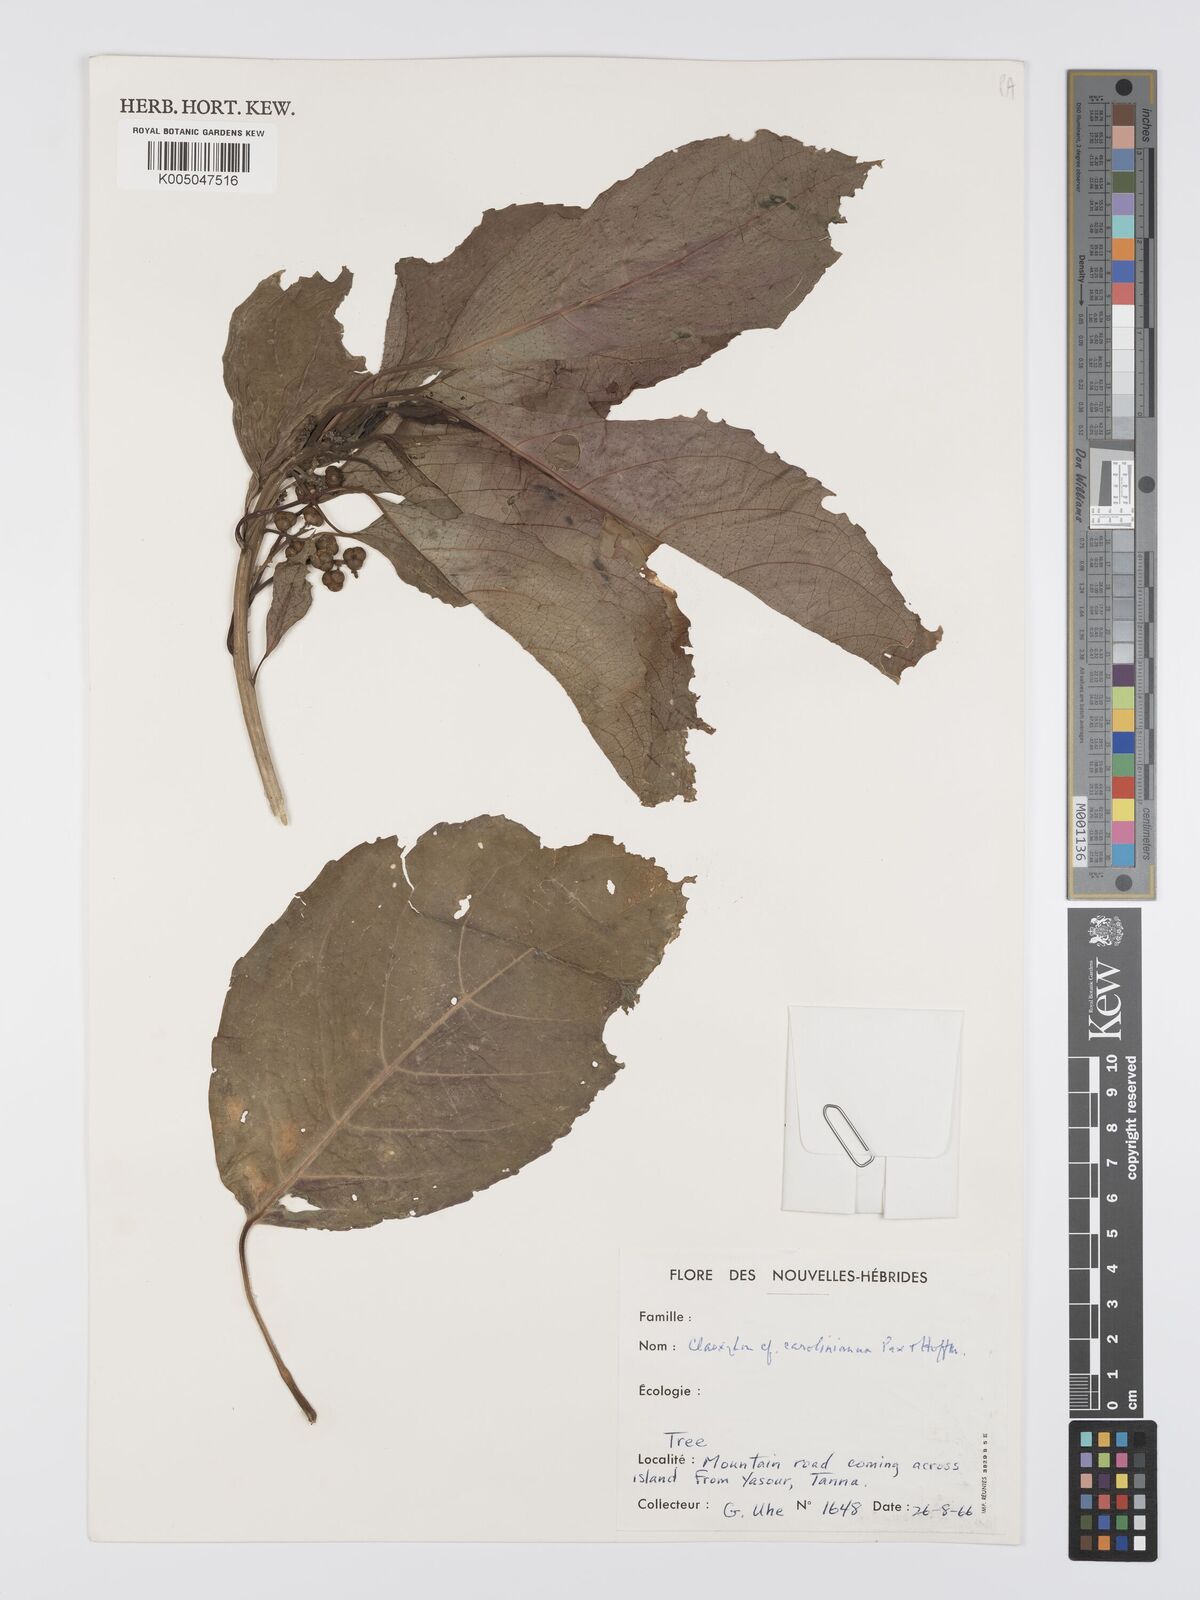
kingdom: Plantae
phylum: Tracheophyta
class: Magnoliopsida
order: Malpighiales
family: Euphorbiaceae
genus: Claoxylon
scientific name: Claoxylon carolinianum
